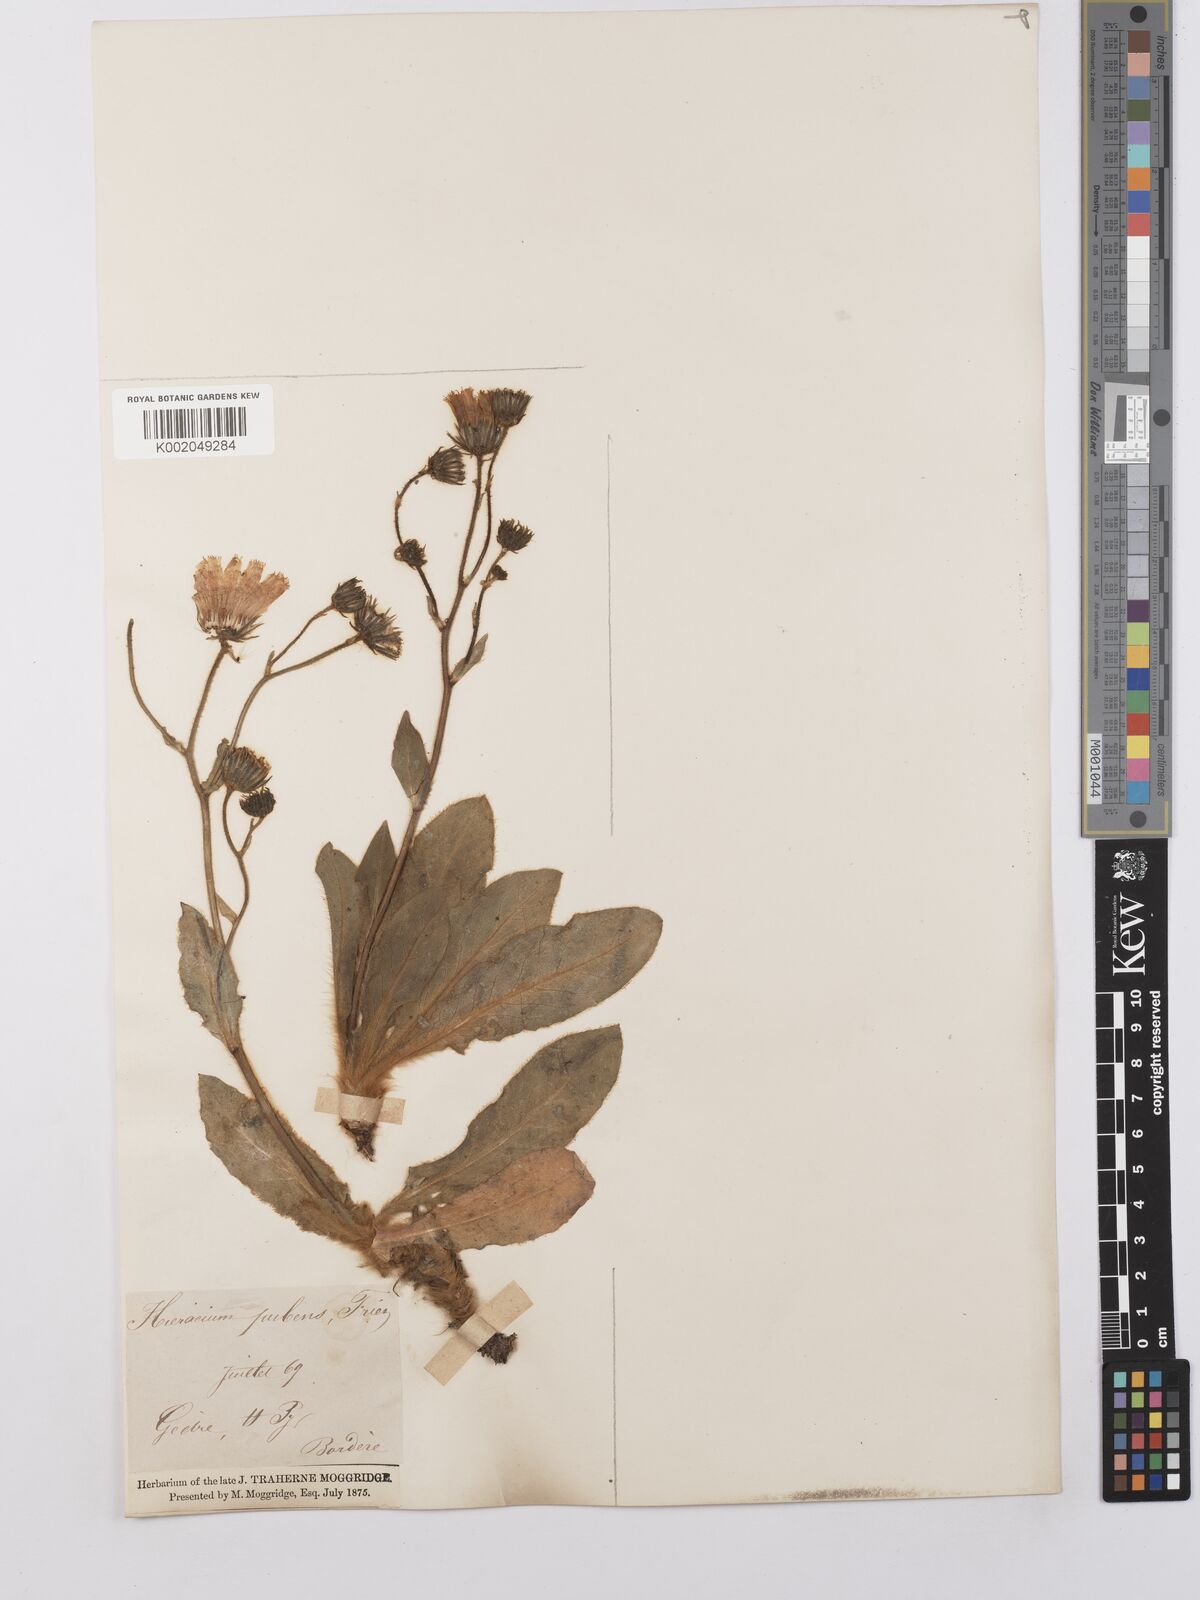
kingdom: Plantae
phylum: Tracheophyta
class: Magnoliopsida
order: Asterales
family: Asteraceae
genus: Hieracium
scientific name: Hieracium
